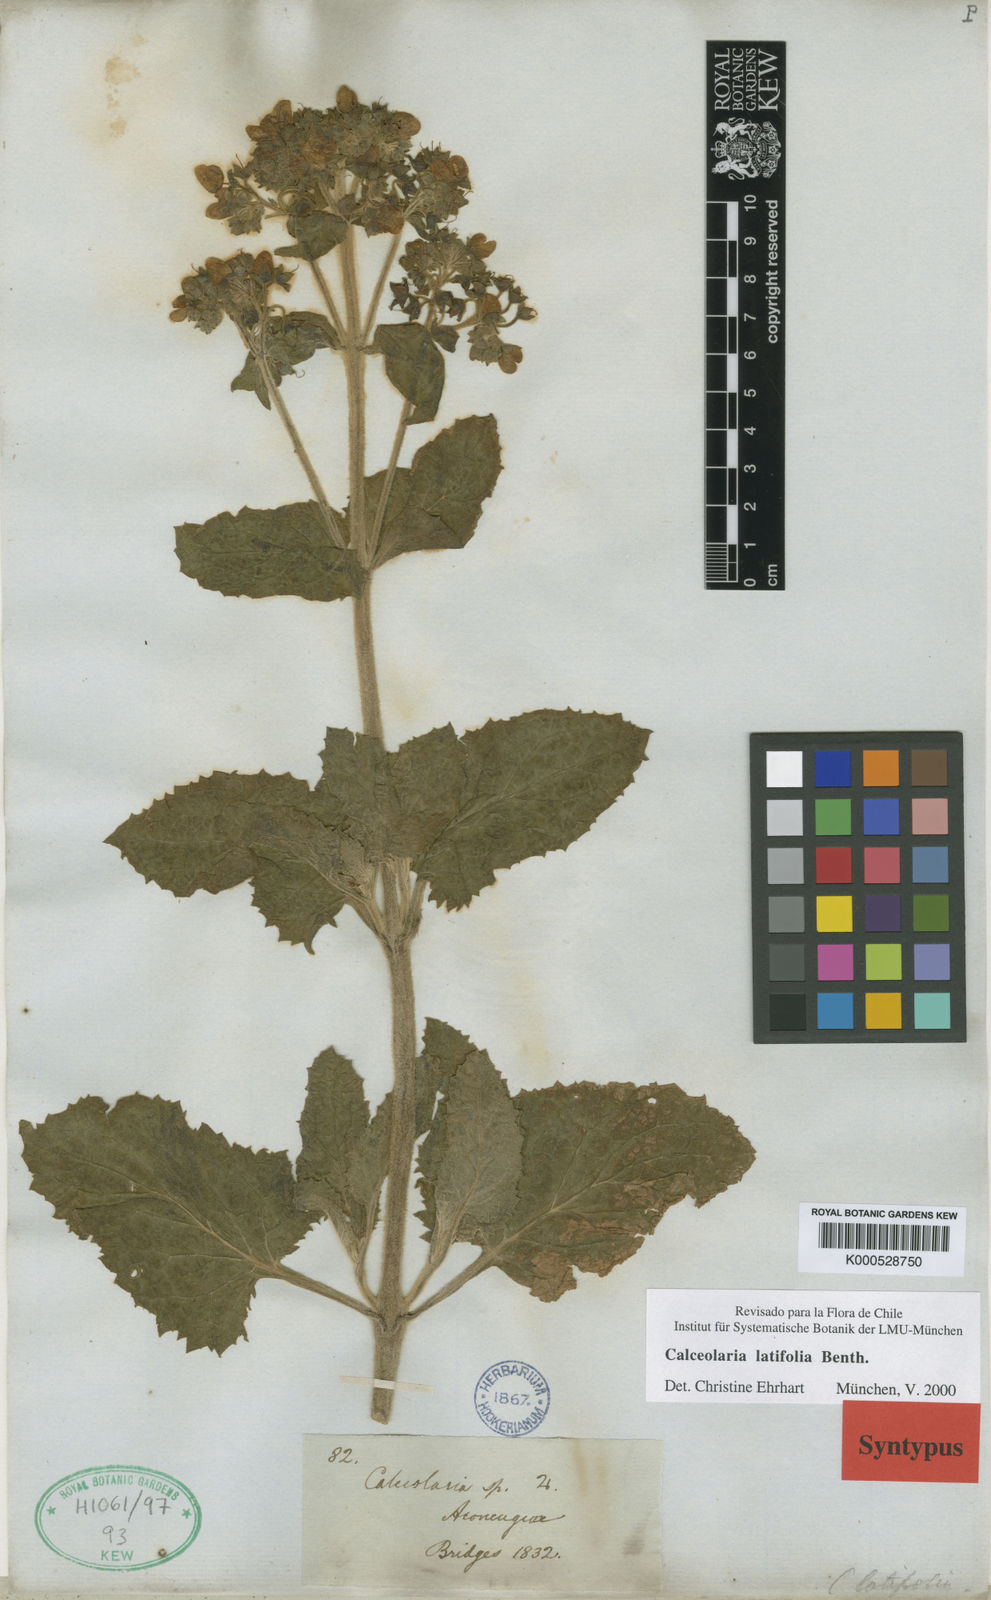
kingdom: Plantae
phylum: Tracheophyta
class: Magnoliopsida
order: Lamiales
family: Calceolariaceae
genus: Calceolaria
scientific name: Calceolaria latifolia
